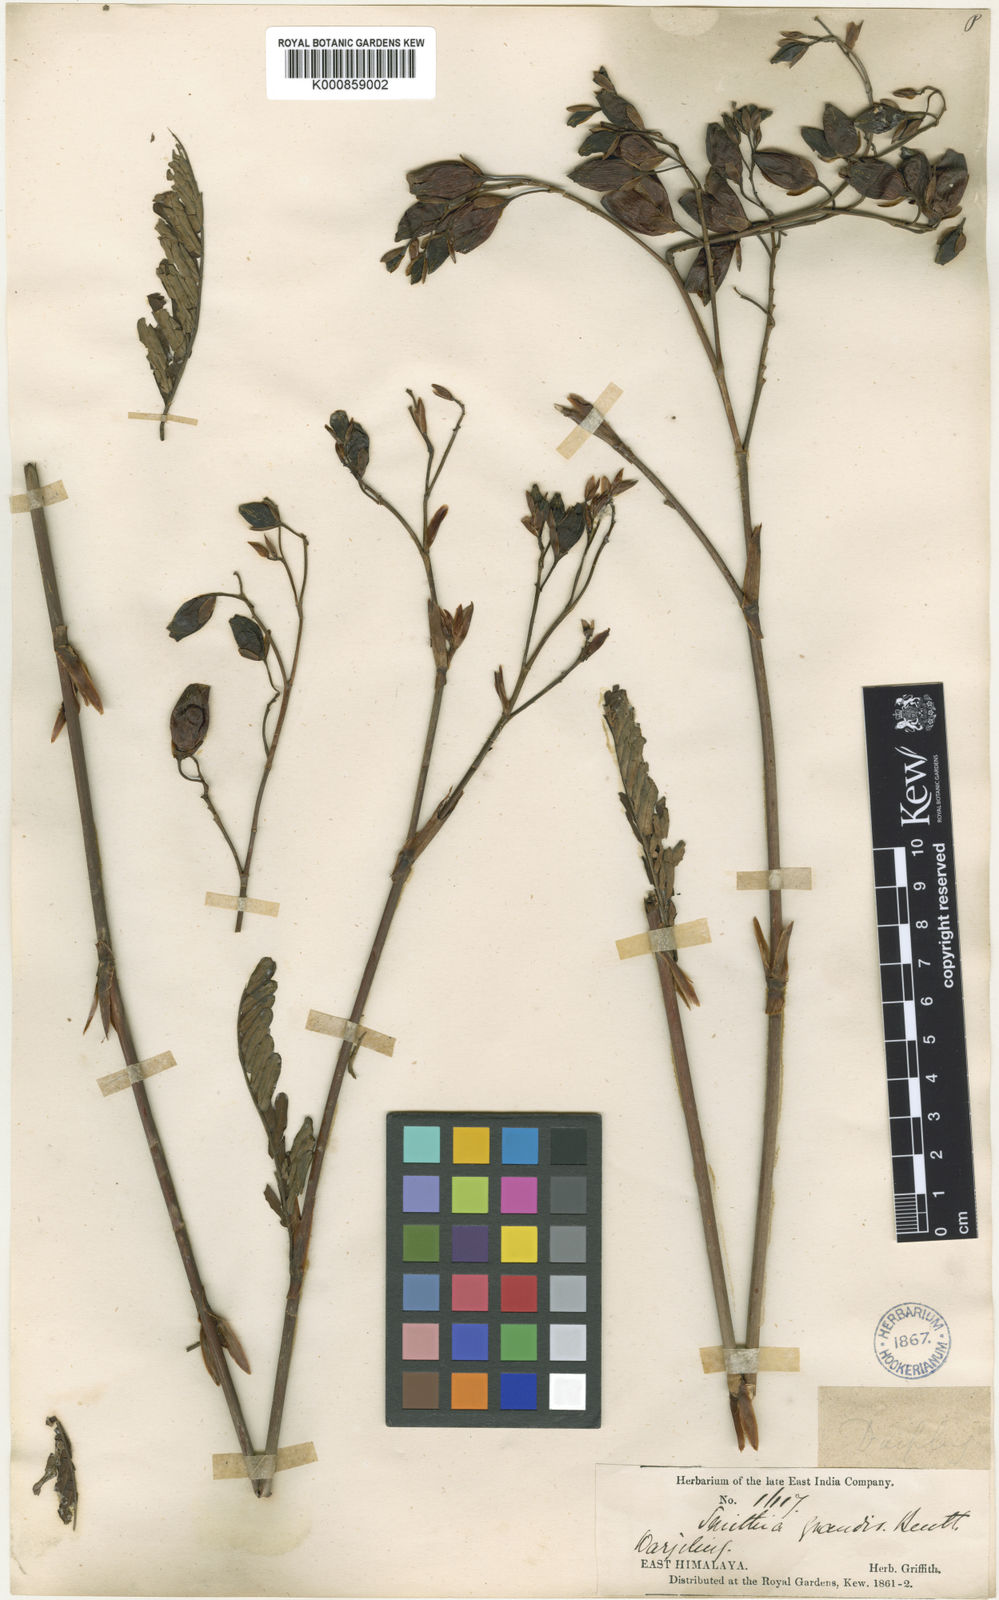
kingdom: Plantae
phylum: Tracheophyta
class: Magnoliopsida
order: Fabales
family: Fabaceae
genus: Smithia
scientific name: Smithia grandis
